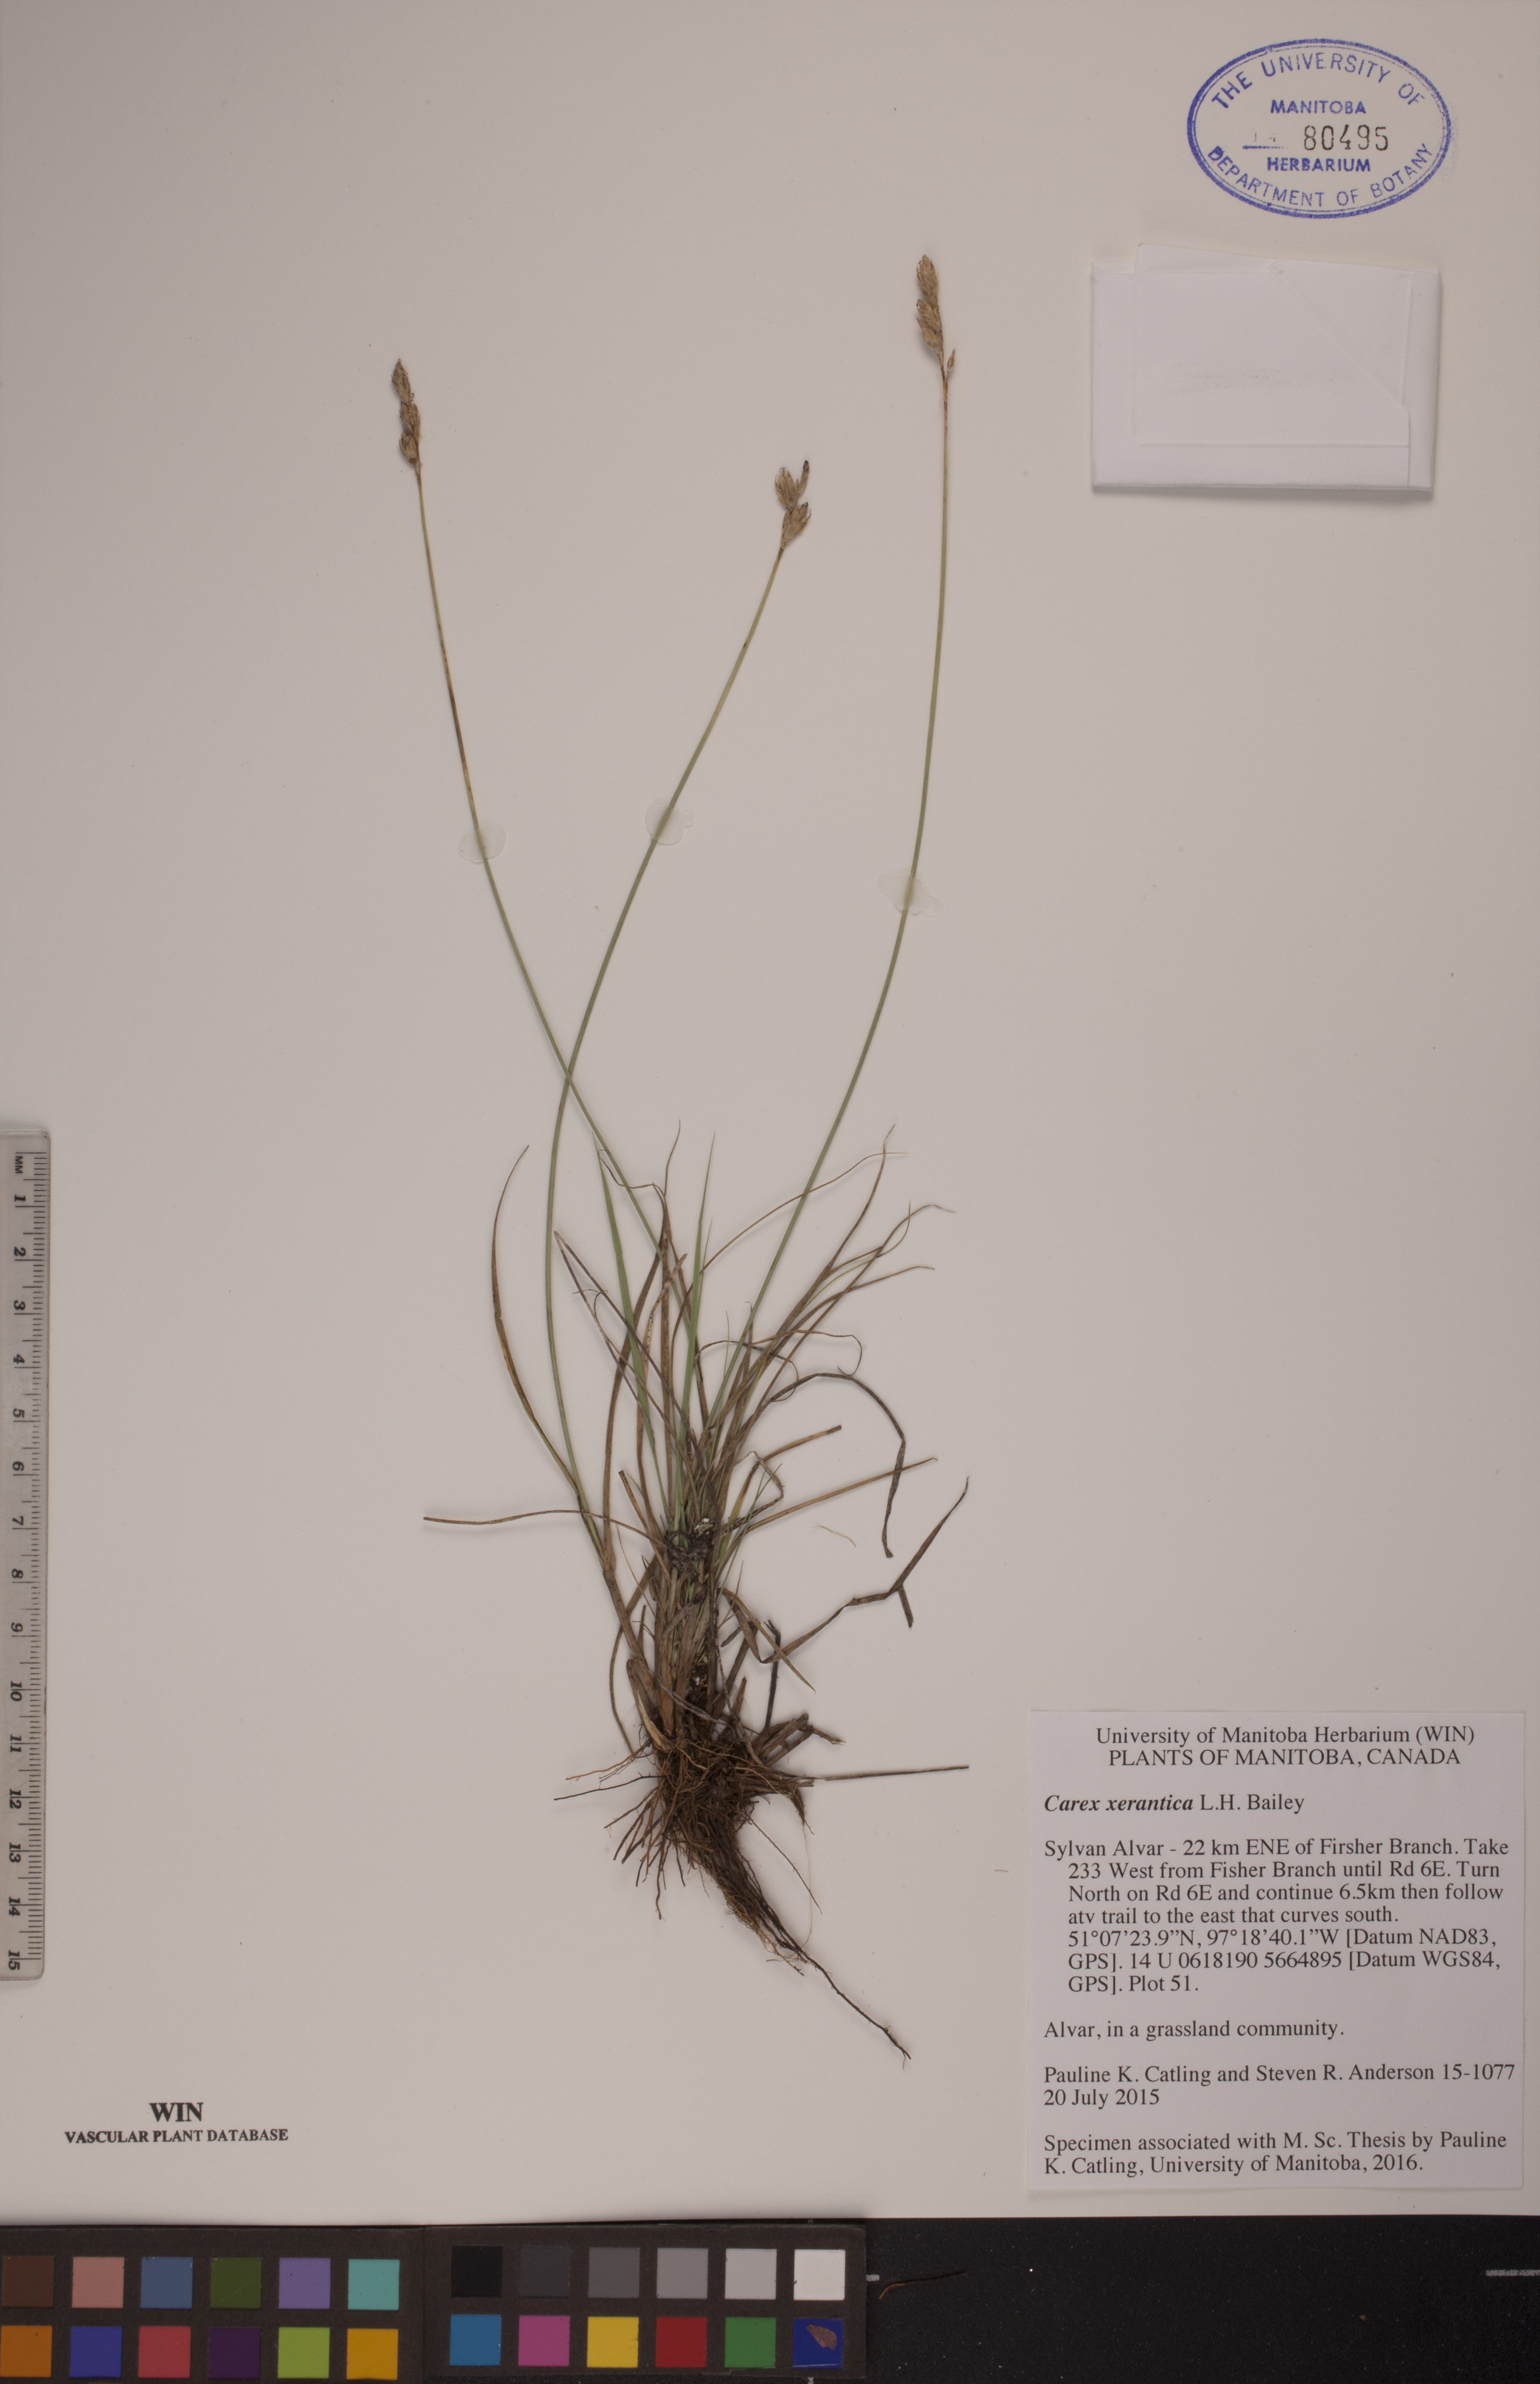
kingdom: Plantae
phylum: Tracheophyta
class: Liliopsida
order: Poales
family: Cyperaceae
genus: Carex
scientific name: Carex xerantica
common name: Dryland sedge
